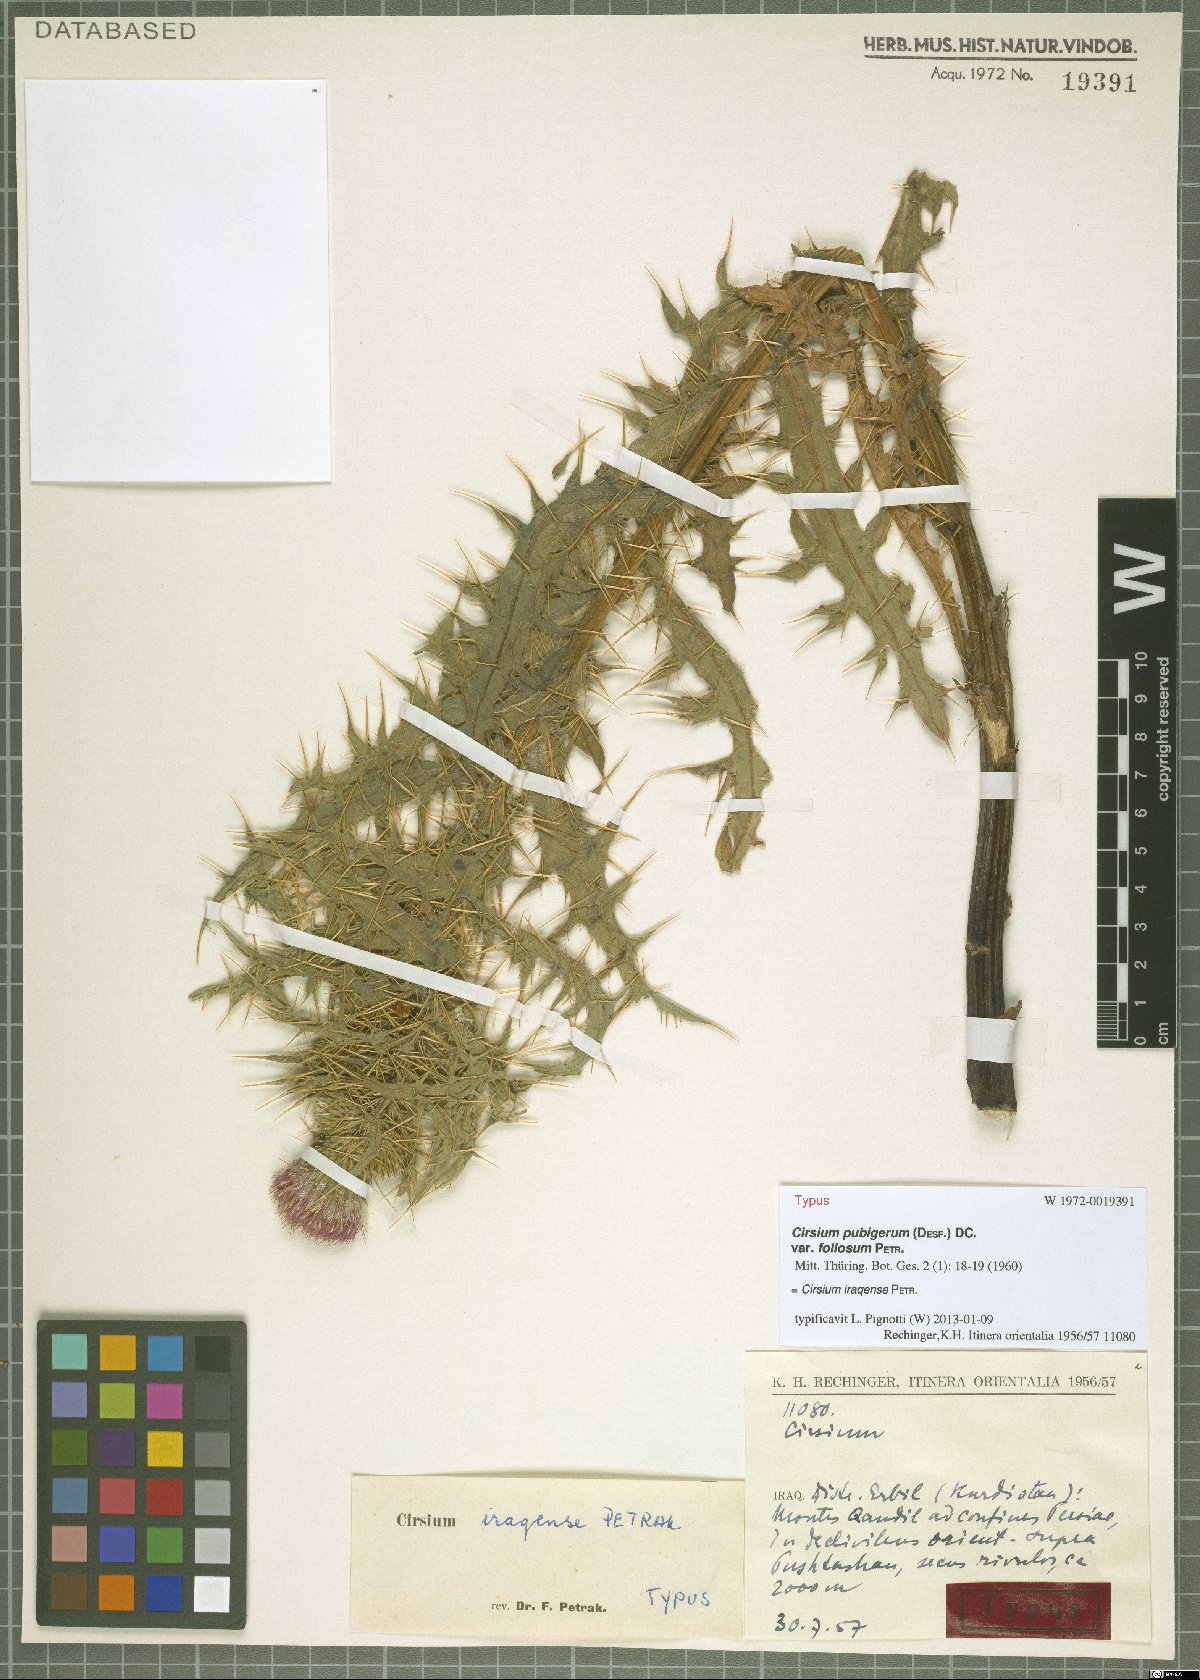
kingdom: Plantae
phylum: Tracheophyta
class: Magnoliopsida
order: Asterales
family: Asteraceae
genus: Cirsium
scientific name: Cirsium pubigerum
